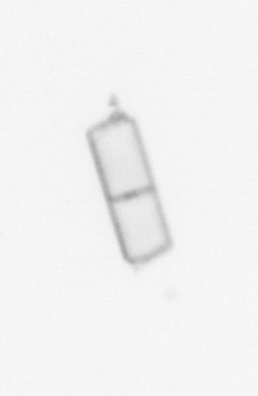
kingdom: Chromista
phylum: Ochrophyta
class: Bacillariophyceae
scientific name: Bacillariophyceae
